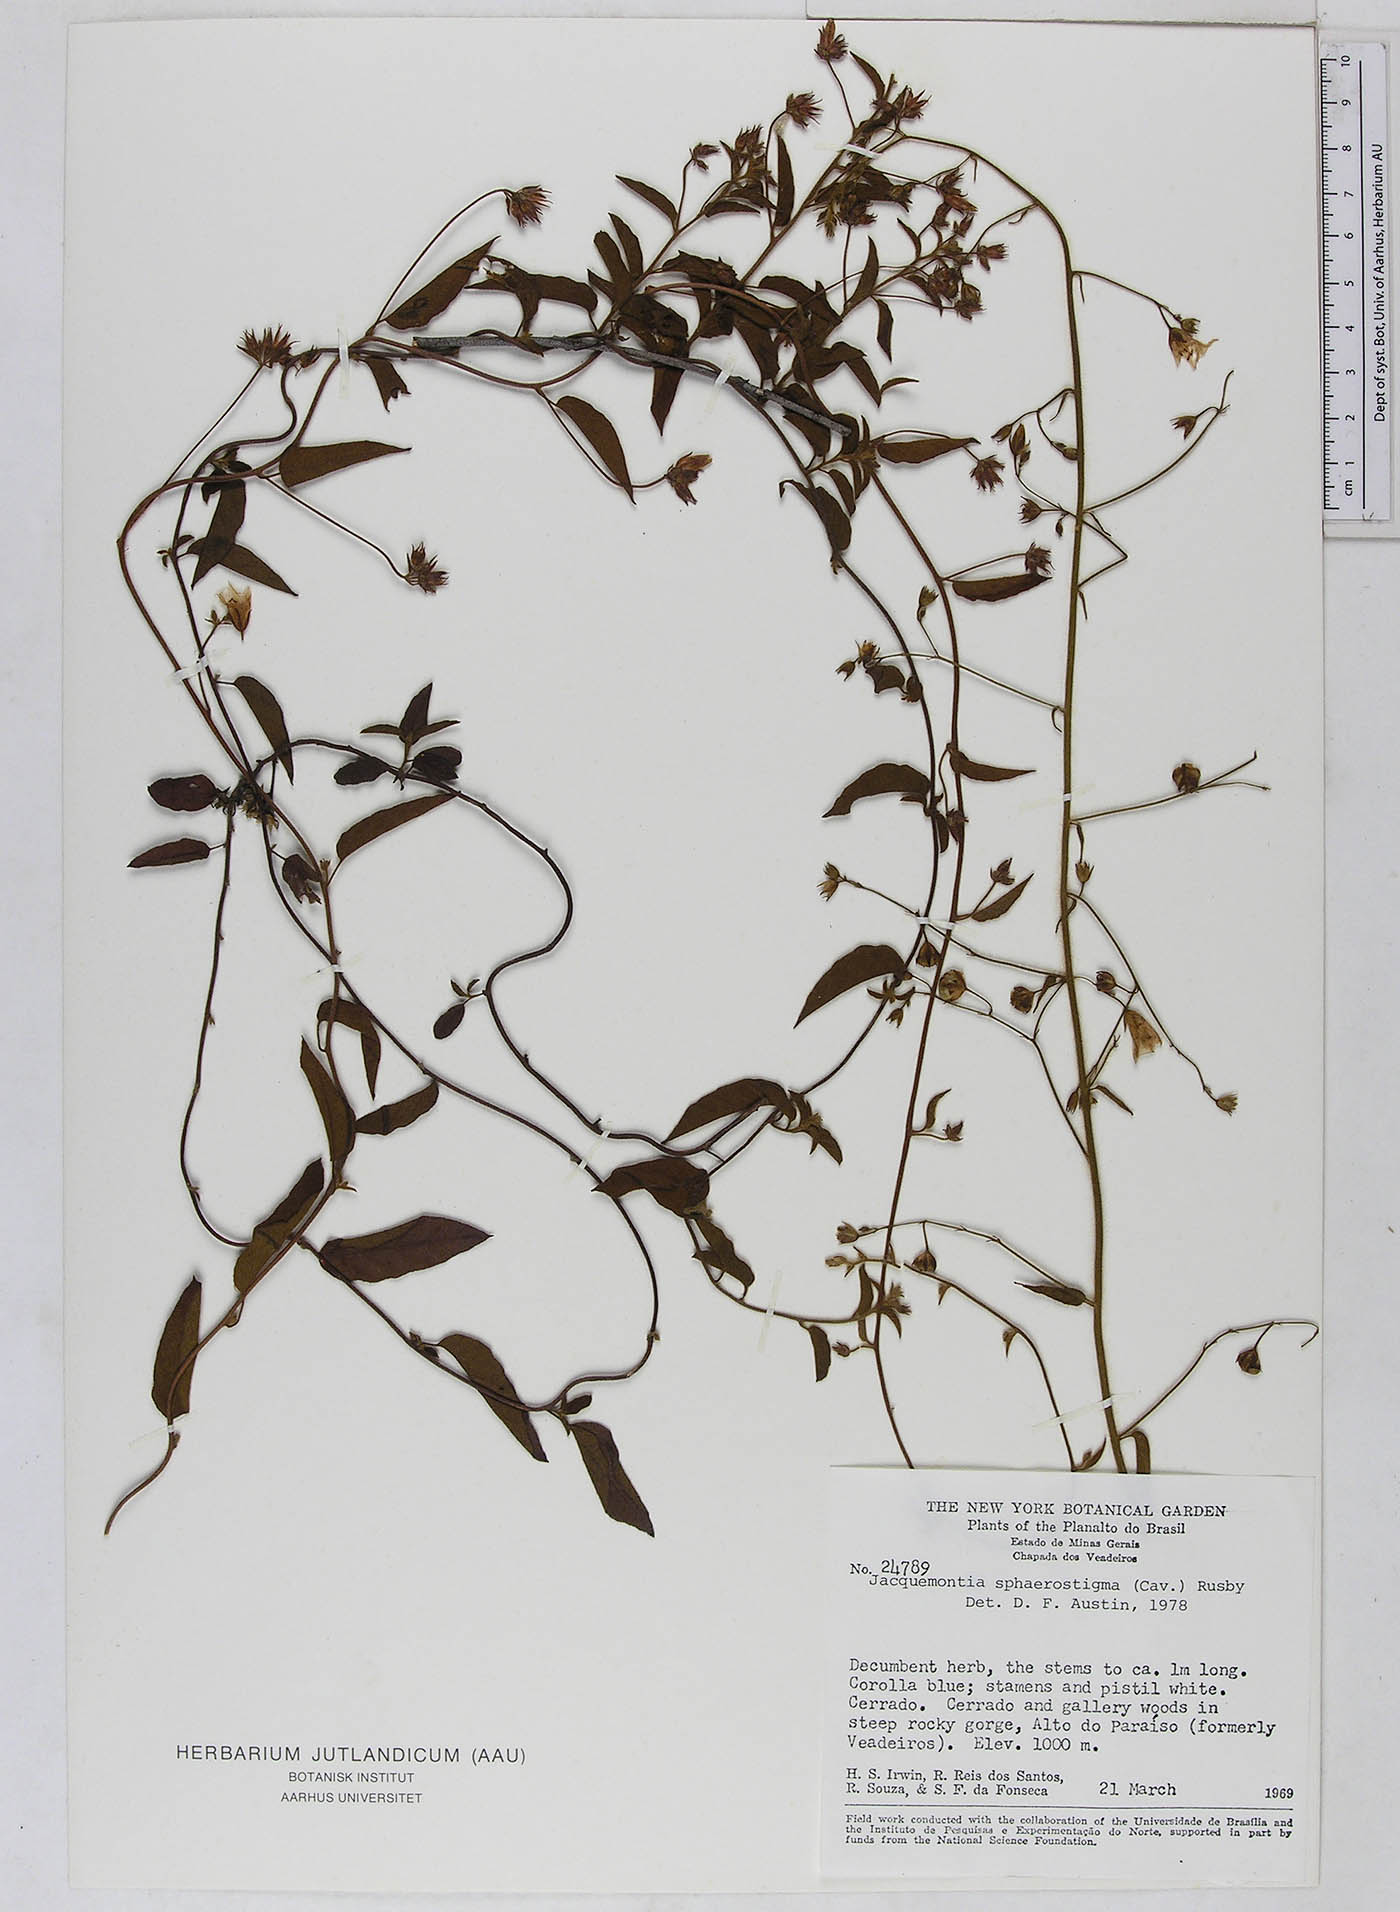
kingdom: Plantae
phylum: Tracheophyta
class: Magnoliopsida
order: Solanales
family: Convolvulaceae
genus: Jacquemontia
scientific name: Jacquemontia sphaerostigma
